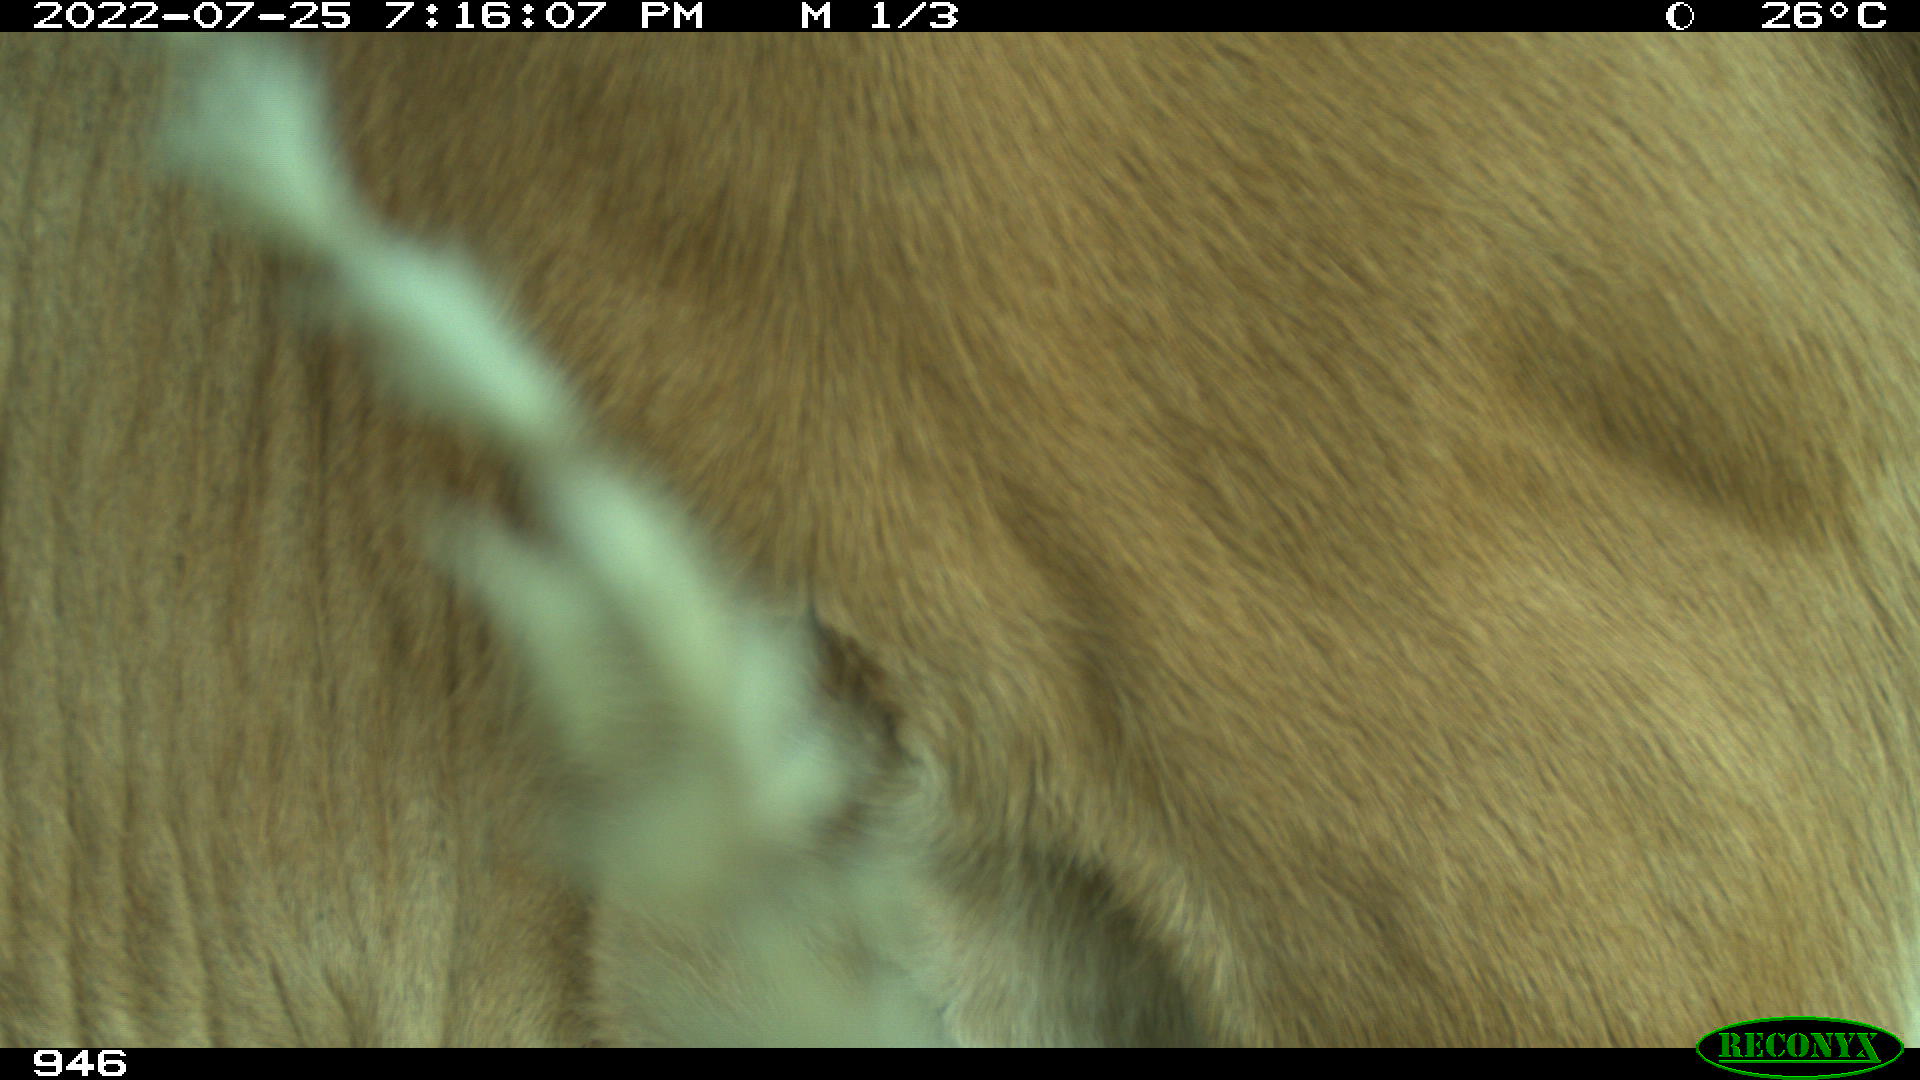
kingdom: Animalia
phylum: Chordata
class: Mammalia
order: Artiodactyla
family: Bovidae
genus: Bos
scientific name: Bos taurus
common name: Domesticated cattle
